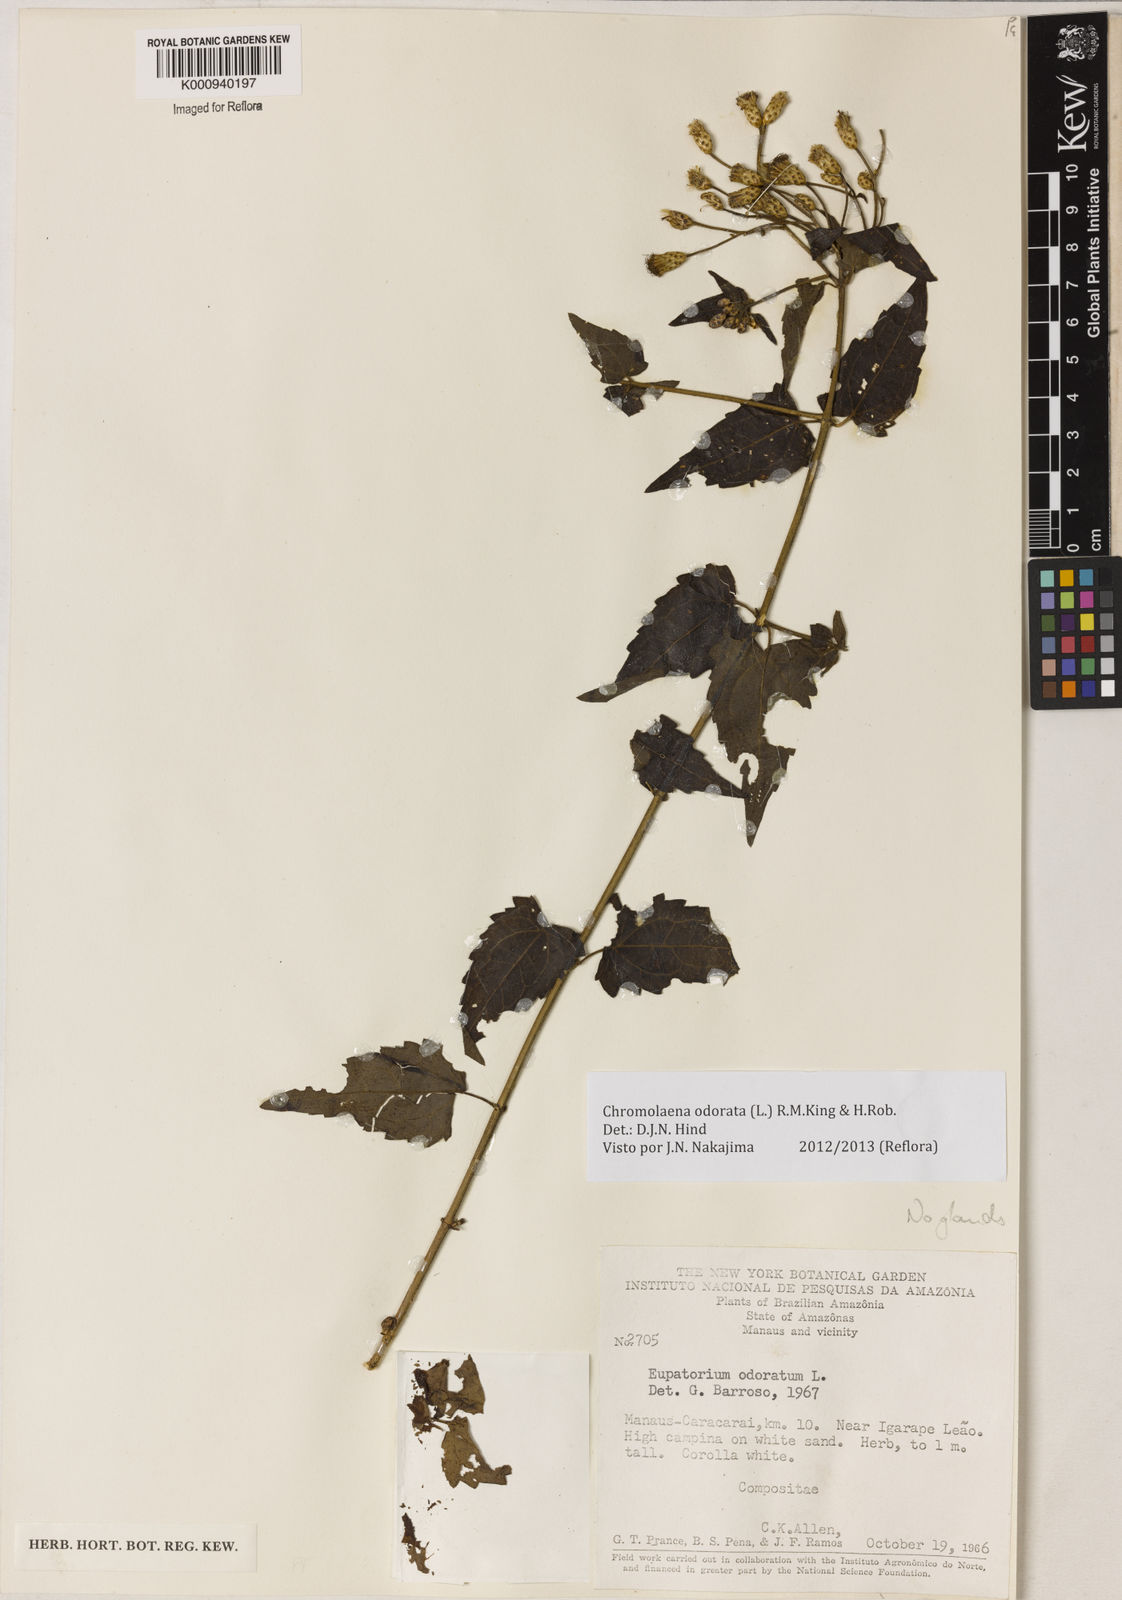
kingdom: Plantae
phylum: Tracheophyta
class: Magnoliopsida
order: Asterales
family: Asteraceae
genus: Chromolaena
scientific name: Chromolaena odorata
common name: Siamweed
